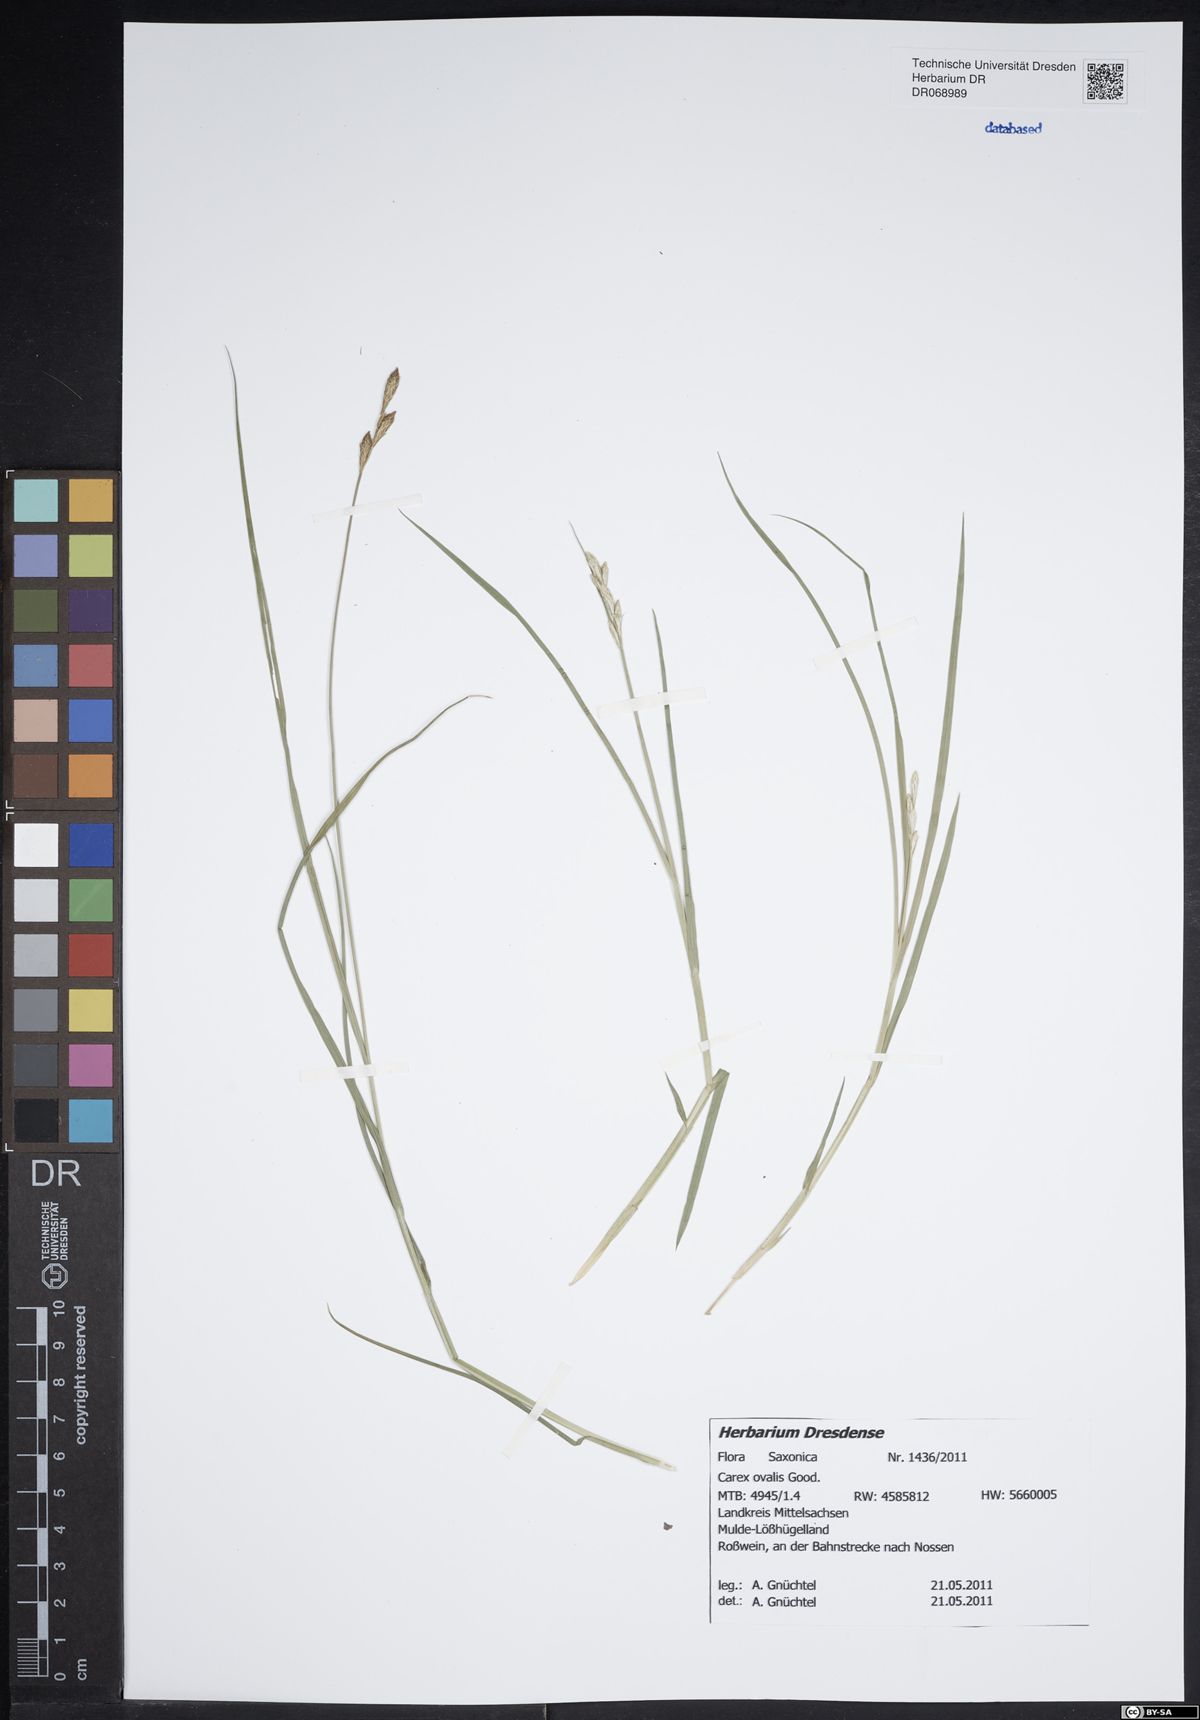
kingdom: Plantae
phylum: Tracheophyta
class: Liliopsida
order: Poales
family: Cyperaceae
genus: Carex
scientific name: Carex leporina
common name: Oval sedge
